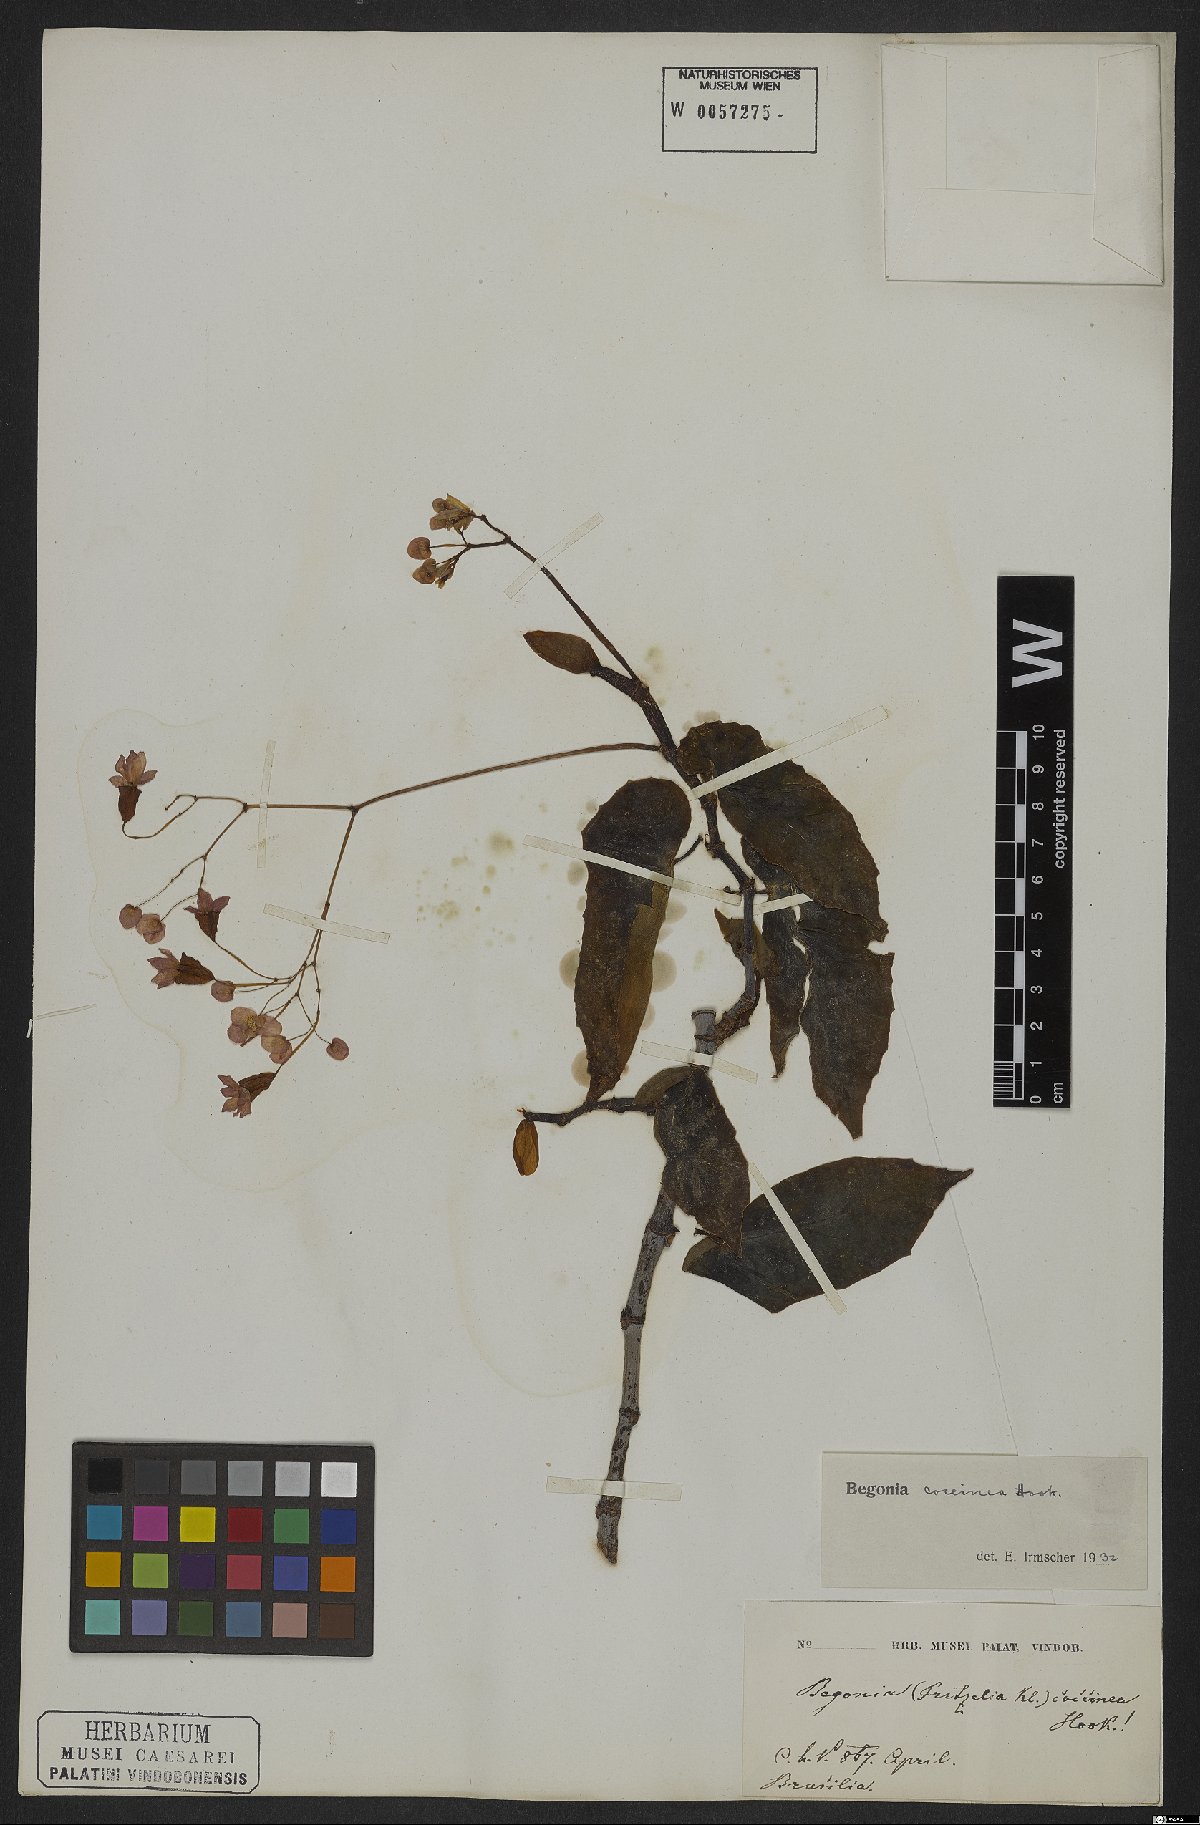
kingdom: Plantae
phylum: Tracheophyta
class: Magnoliopsida
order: Cucurbitales
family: Begoniaceae
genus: Begonia
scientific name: Begonia coccinea
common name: Angel-wing begonia
